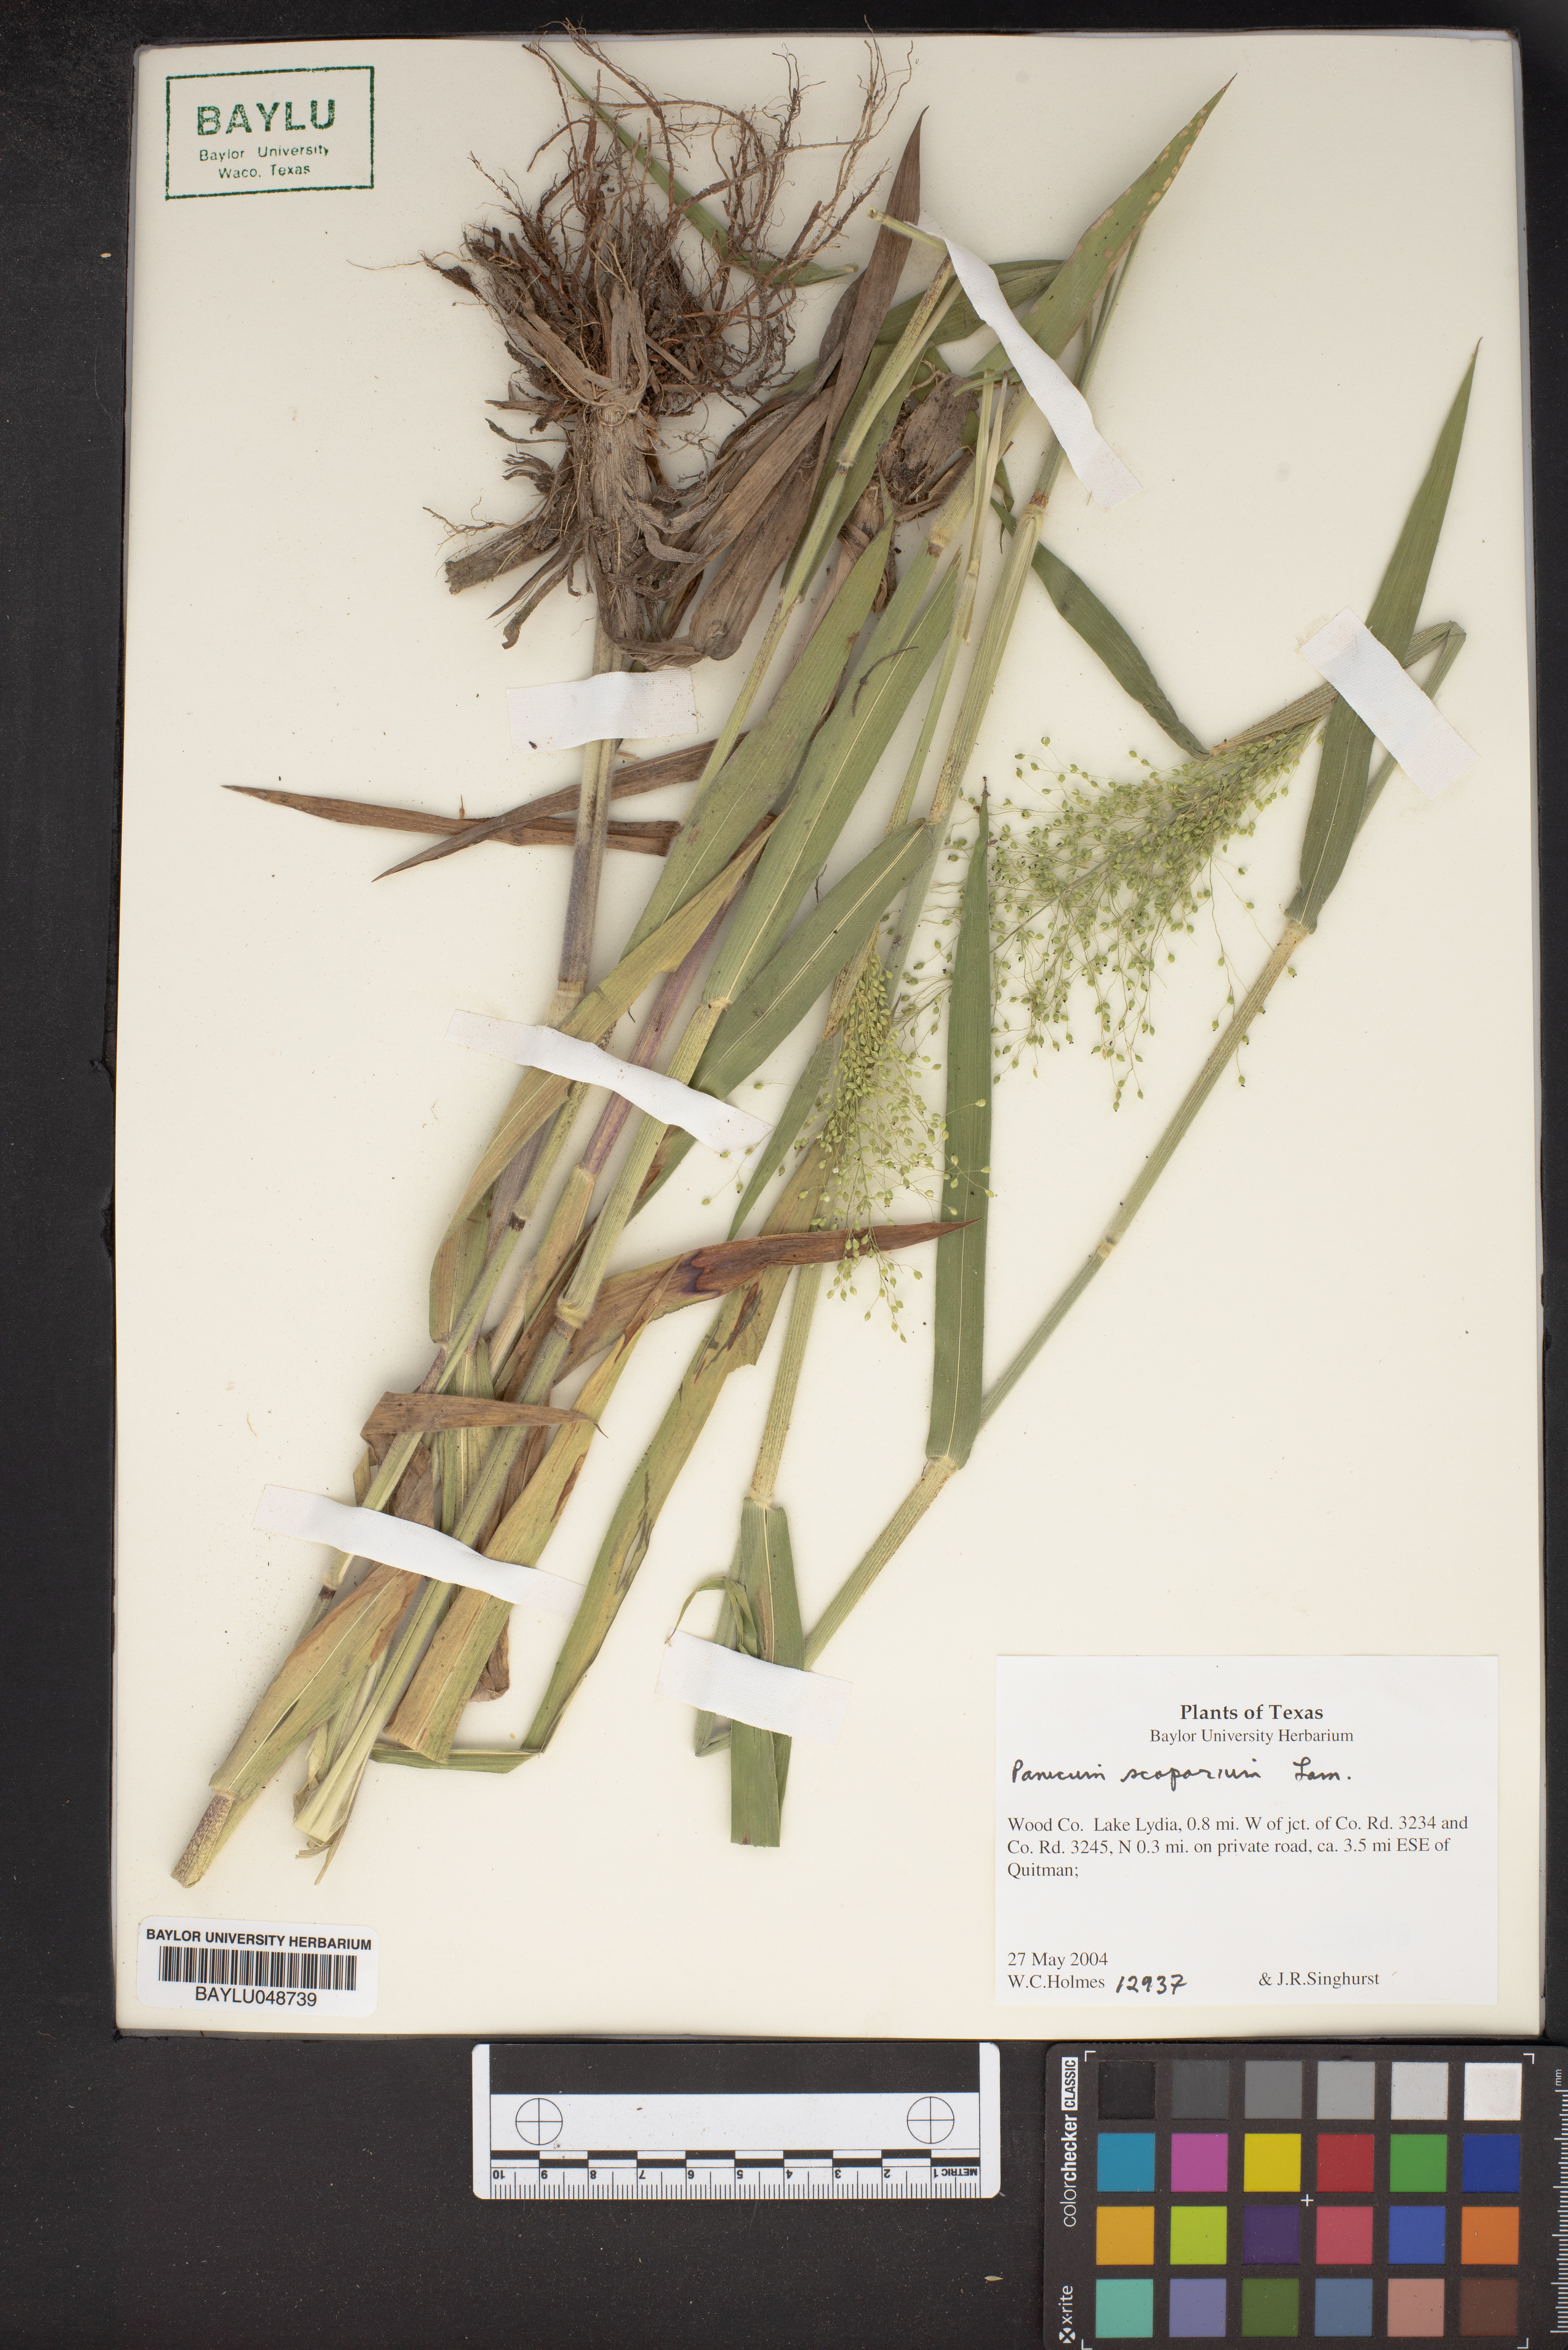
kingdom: Plantae
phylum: Tracheophyta
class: Liliopsida
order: Poales
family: Poaceae
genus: Dichanthelium
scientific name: Dichanthelium scribnerianum
